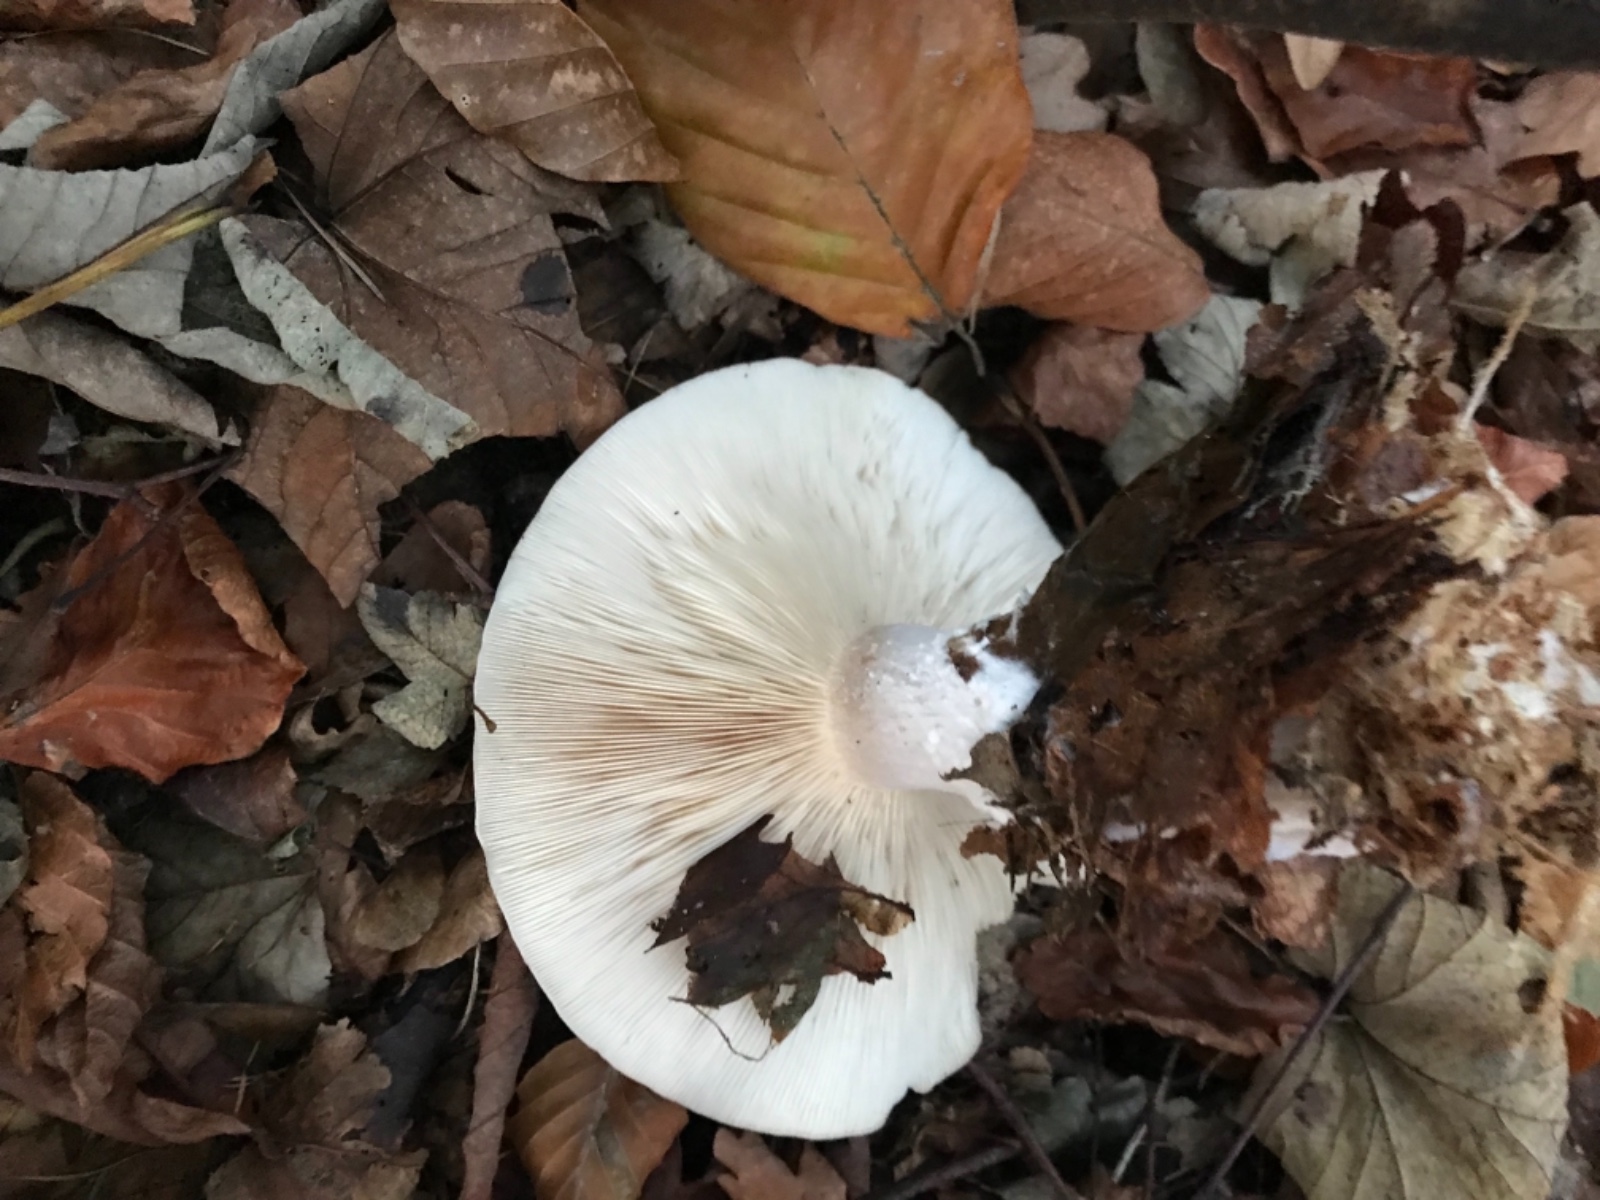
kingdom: Fungi
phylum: Basidiomycota
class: Agaricomycetes
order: Agaricales
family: Tricholomataceae
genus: Clitocybe
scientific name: Clitocybe nebularis
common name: tåge-tragthat
